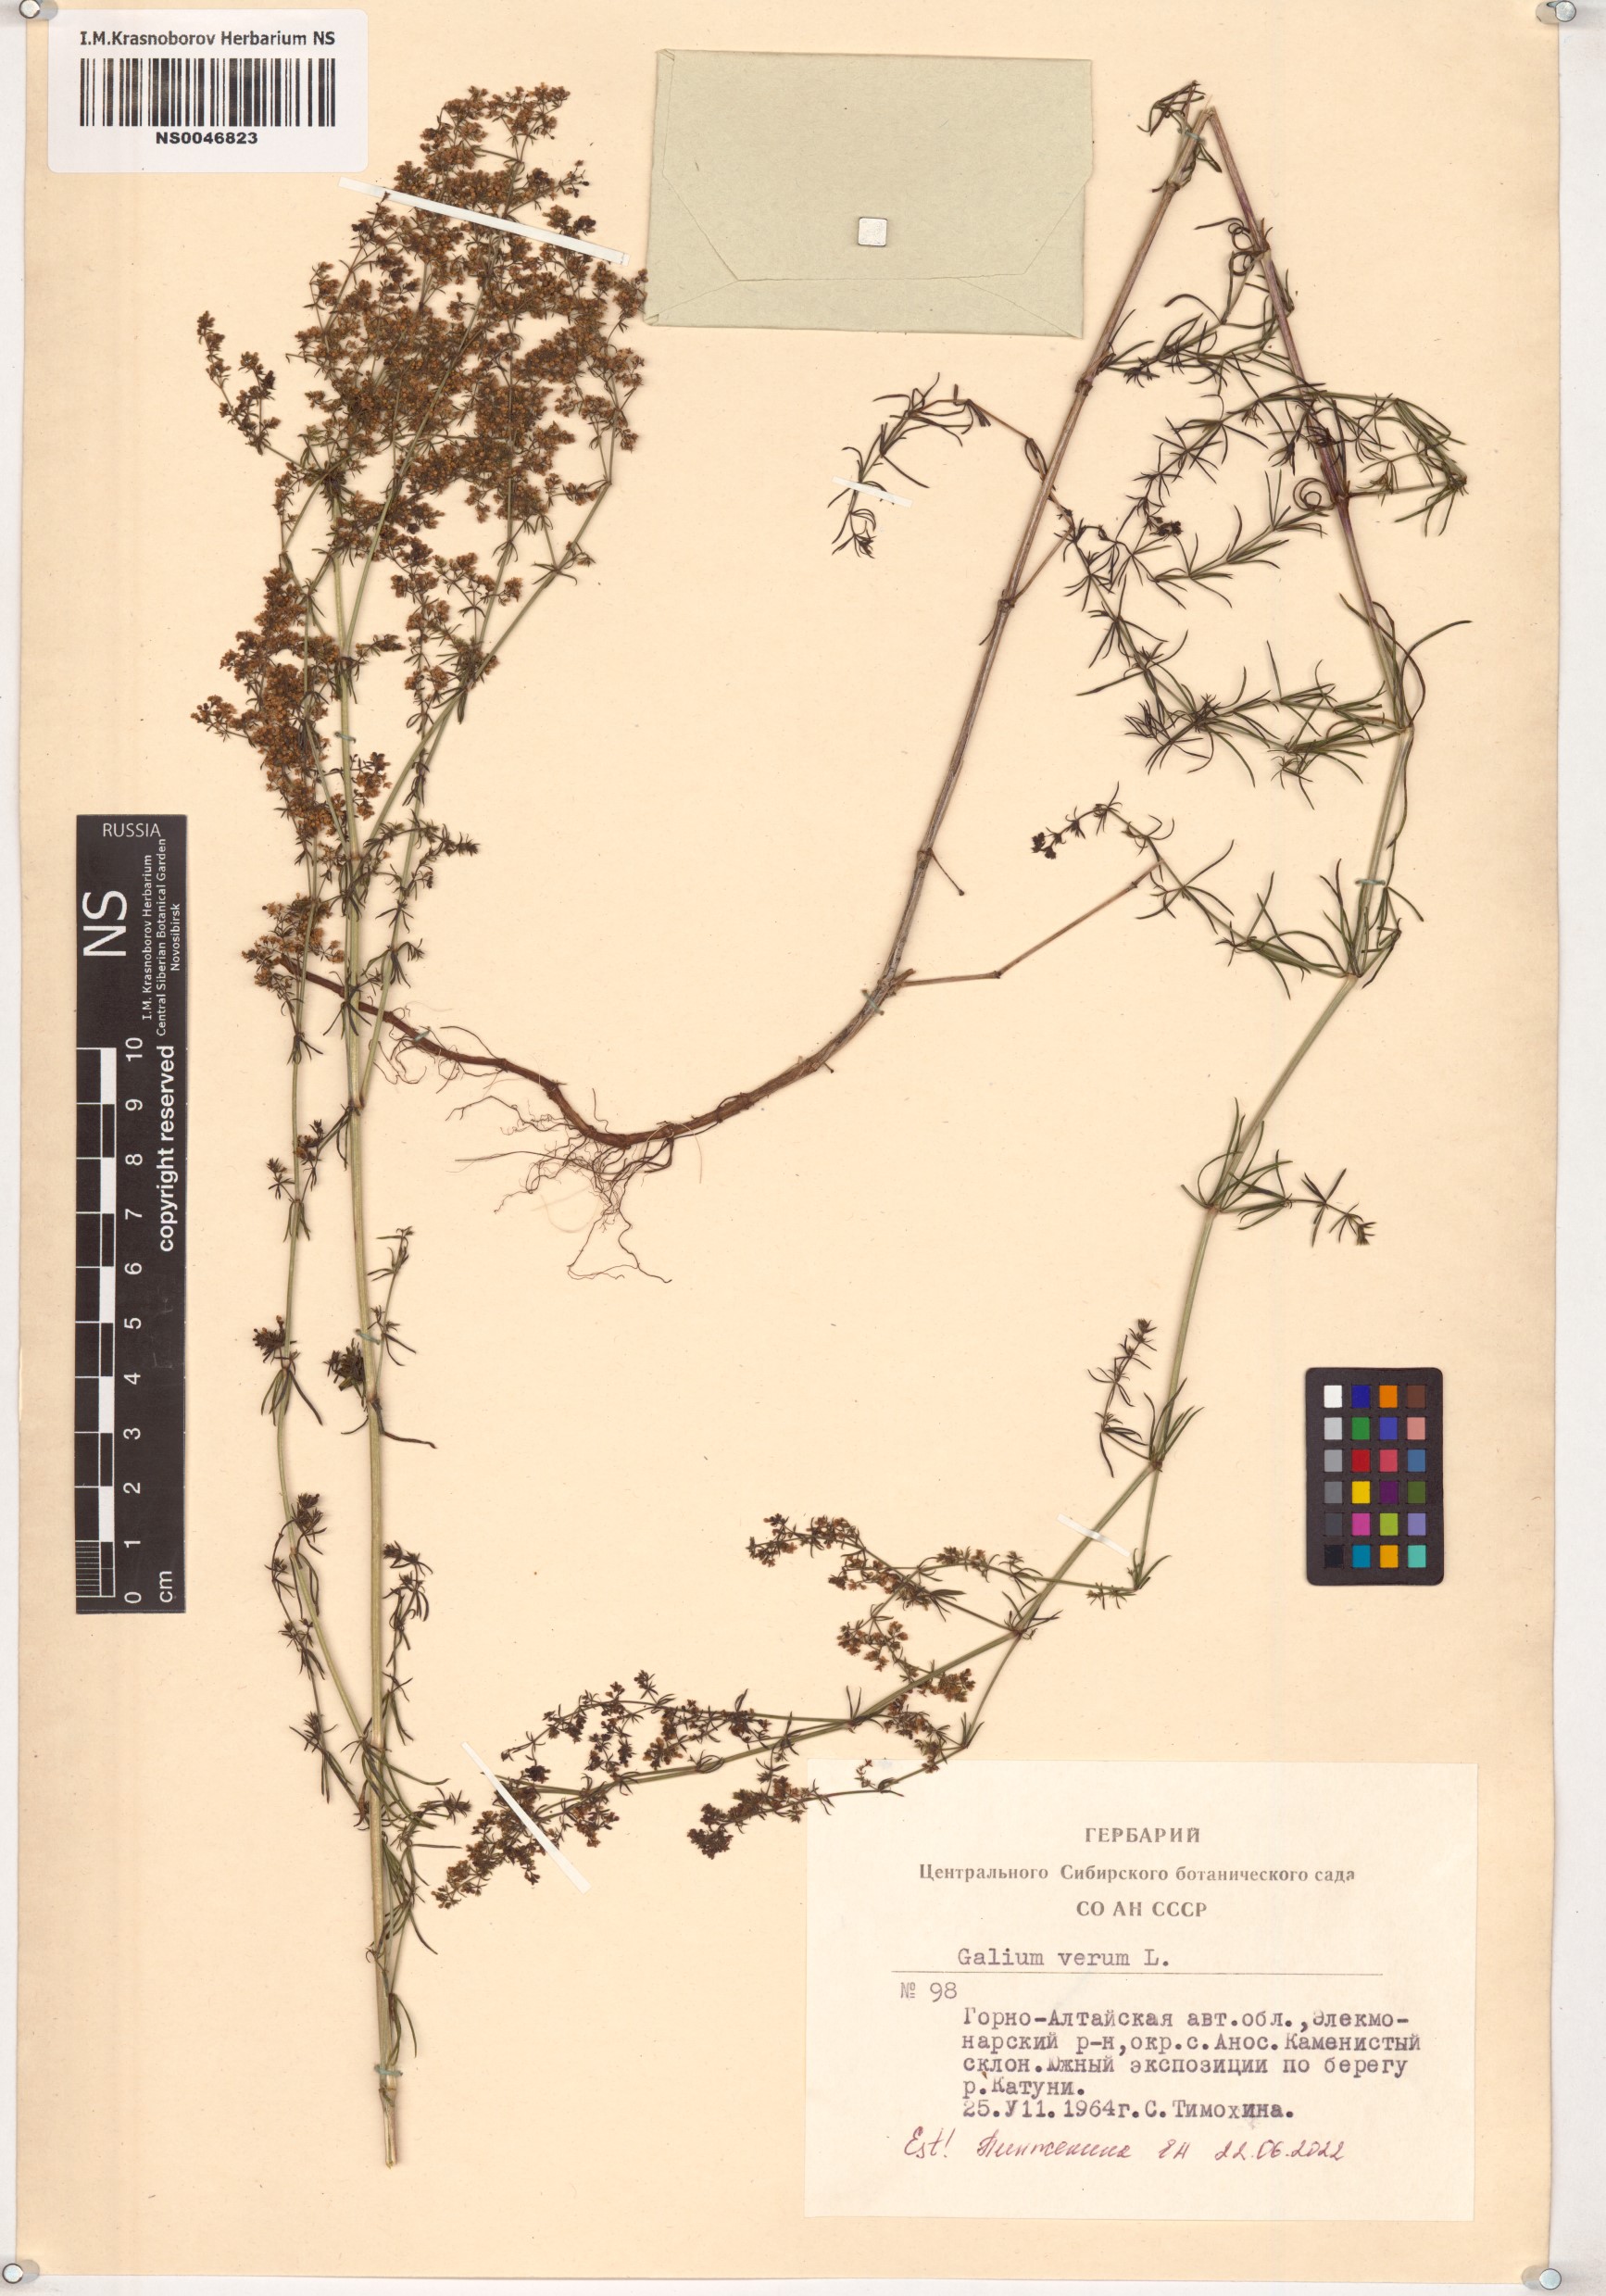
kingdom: Plantae
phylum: Tracheophyta
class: Magnoliopsida
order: Gentianales
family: Rubiaceae
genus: Galium
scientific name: Galium verum
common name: Lady's bedstraw
